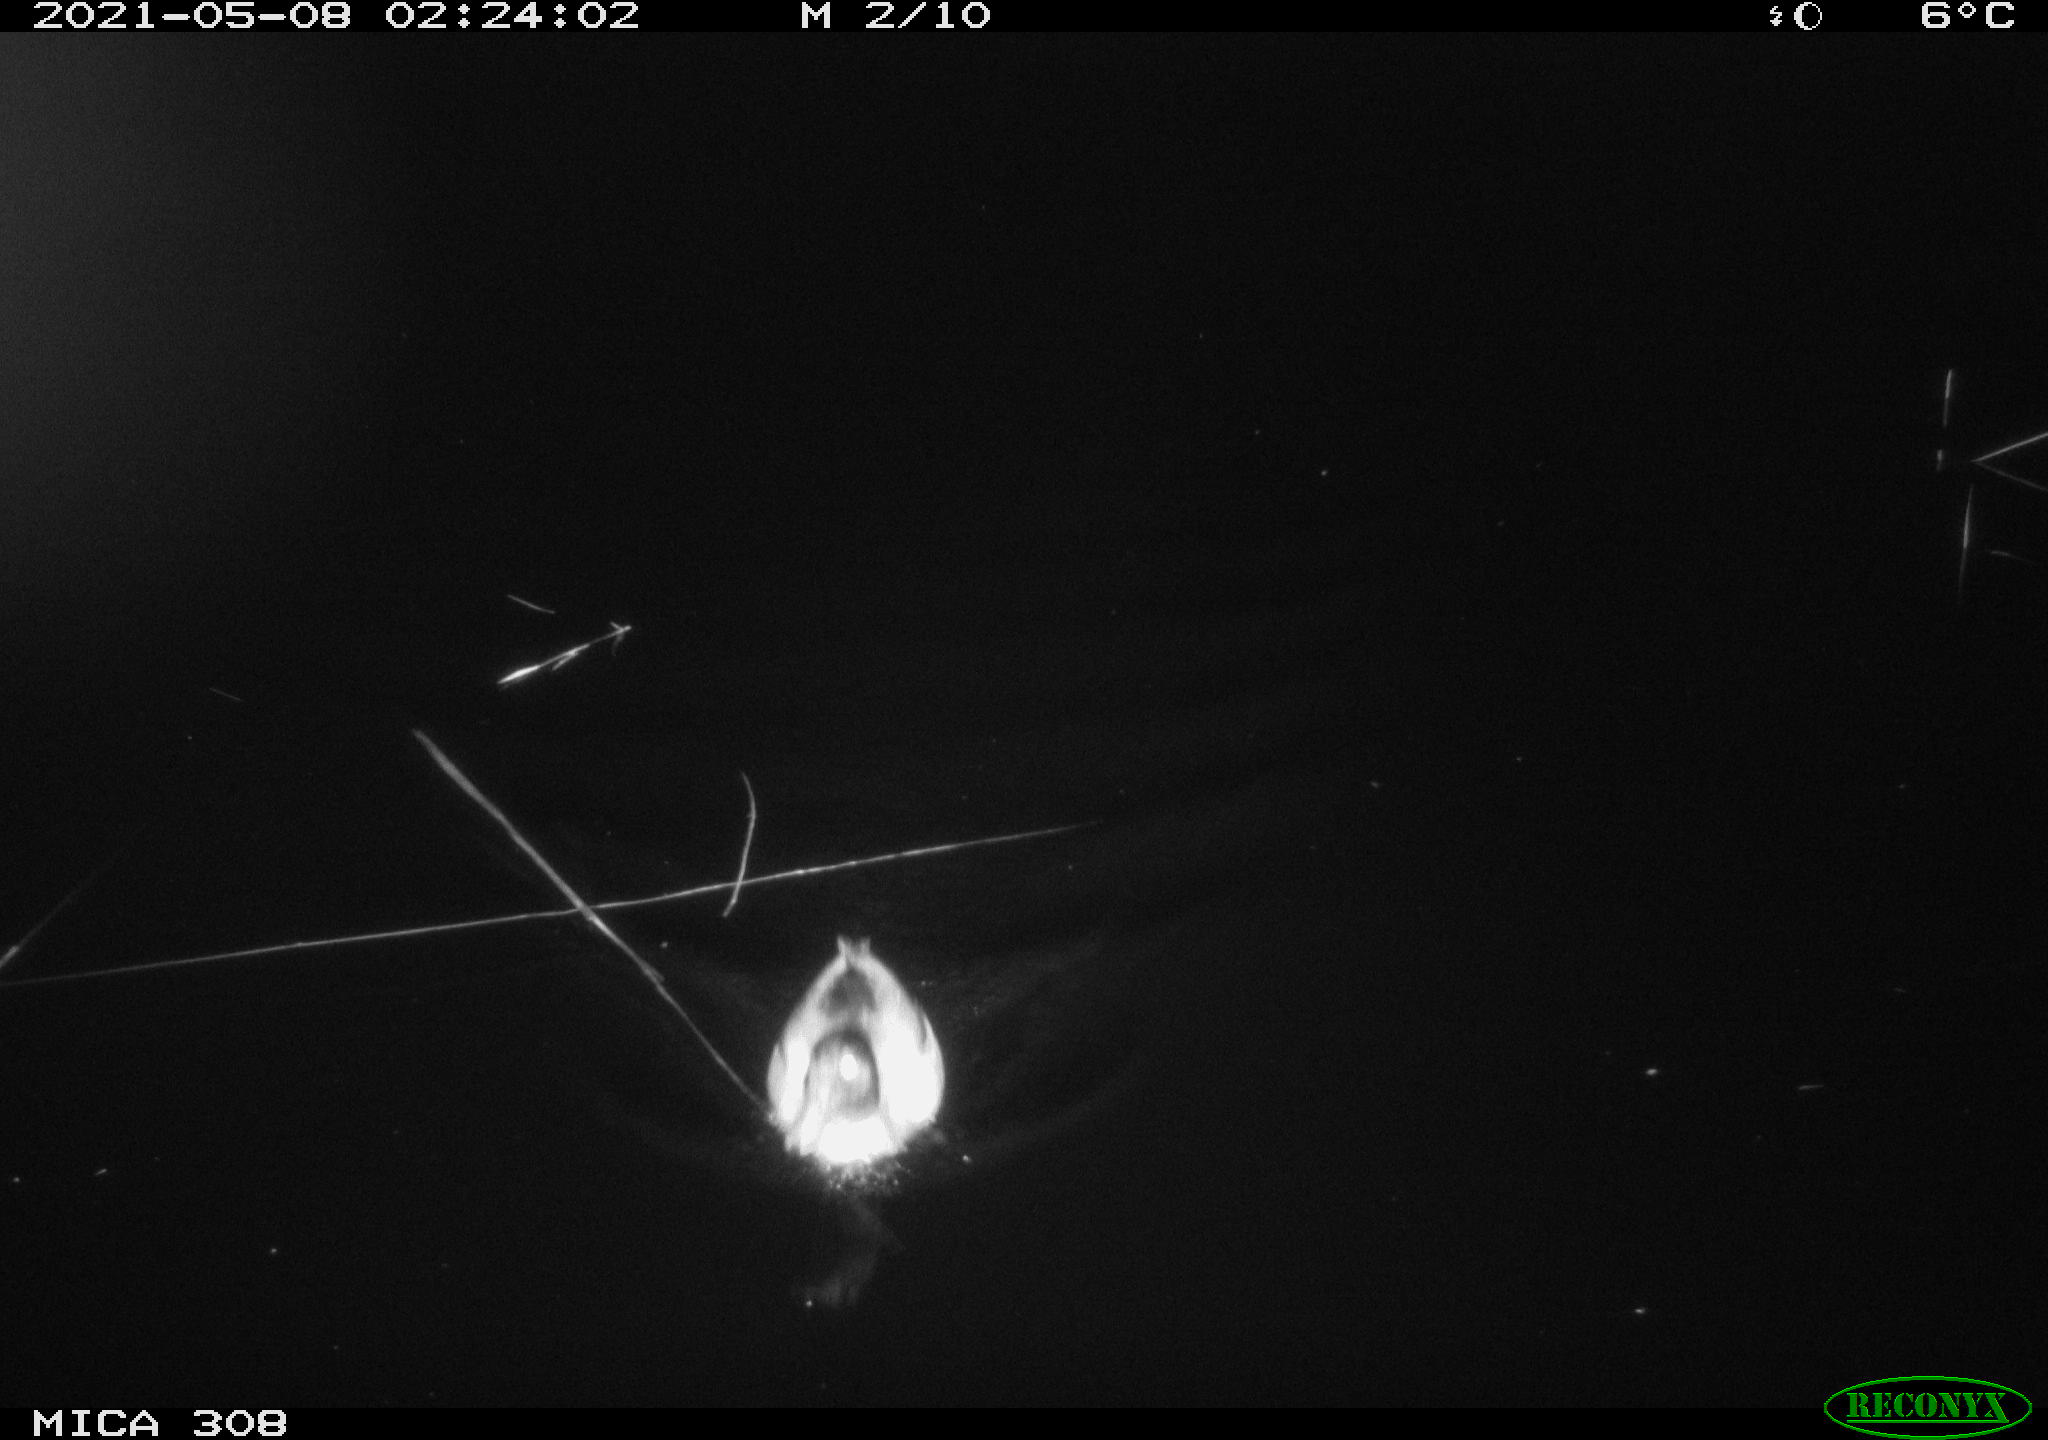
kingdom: Animalia
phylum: Chordata
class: Aves
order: Anseriformes
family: Anatidae
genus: Anas
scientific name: Anas platyrhynchos
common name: Mallard
